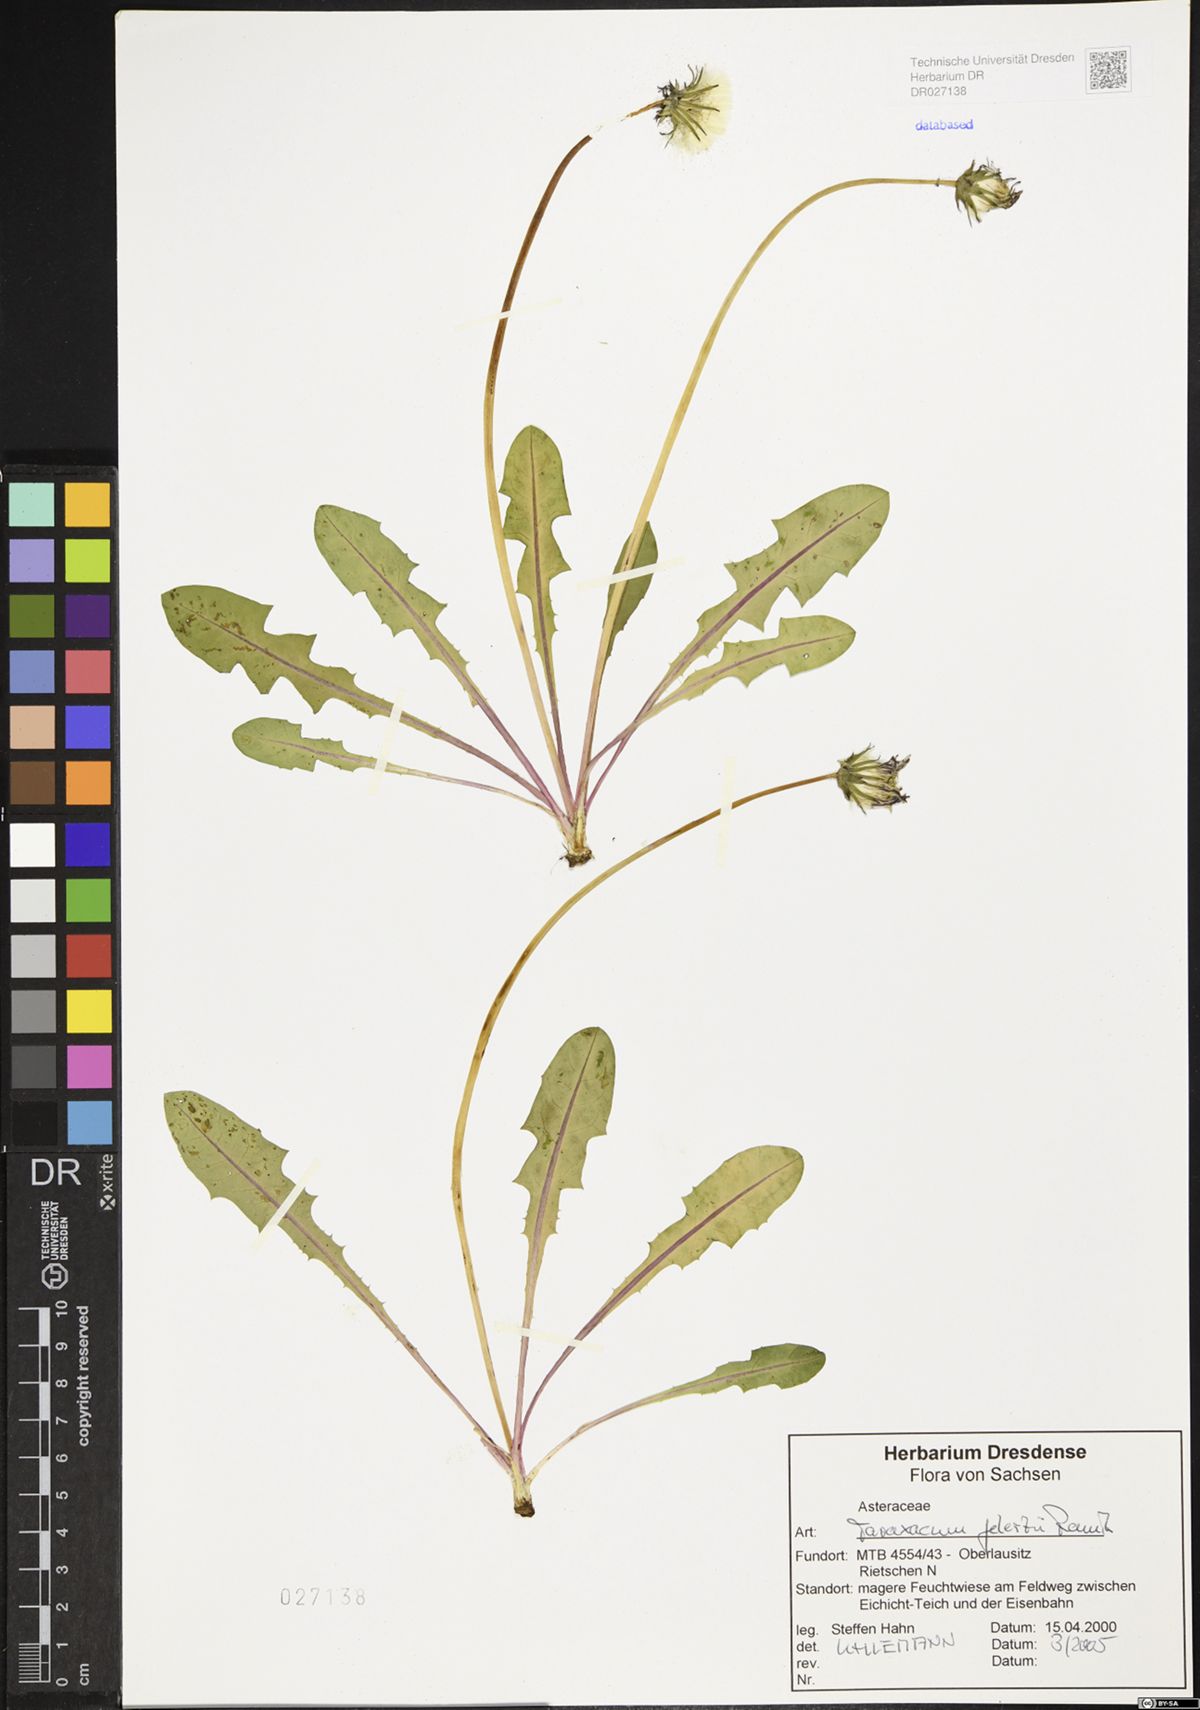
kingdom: Plantae
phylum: Tracheophyta
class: Magnoliopsida
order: Asterales
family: Asteraceae
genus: Taraxacum
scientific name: Taraxacum gelertii
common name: Gelert's dandelion
